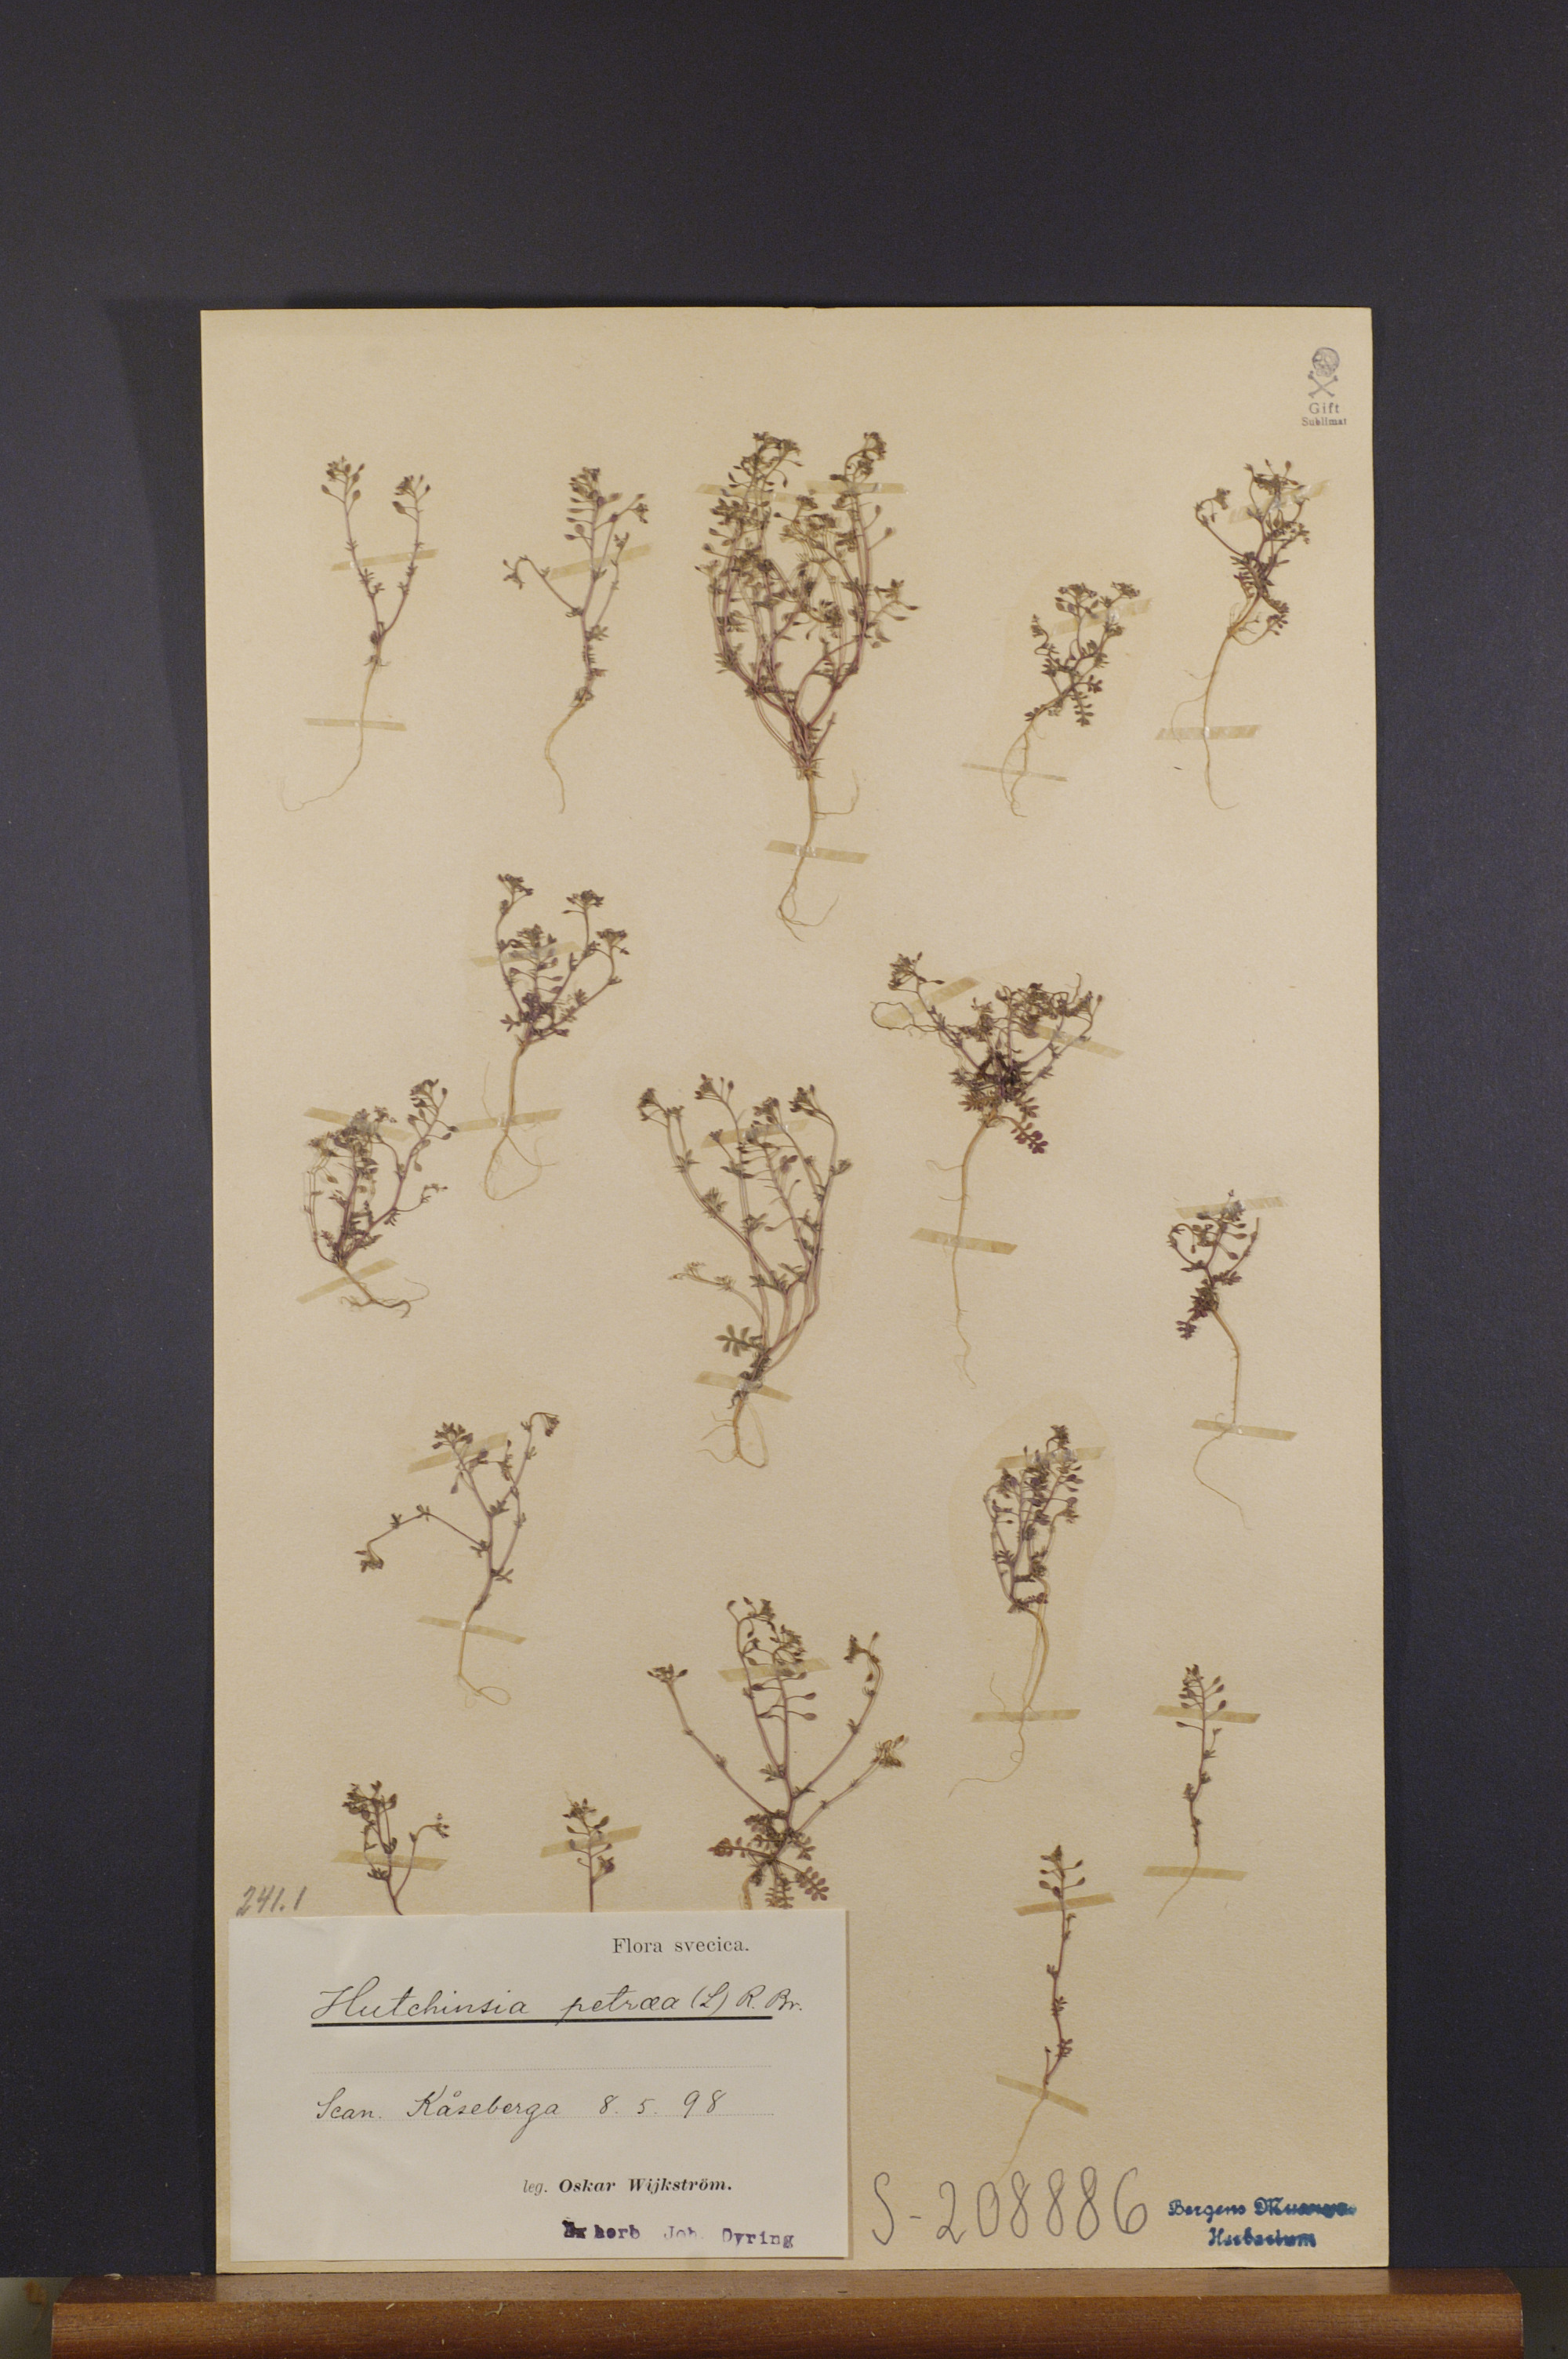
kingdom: Plantae
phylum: Tracheophyta
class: Magnoliopsida
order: Brassicales
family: Brassicaceae
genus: Hornungia
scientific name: Hornungia petraea
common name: Hutchinsia
